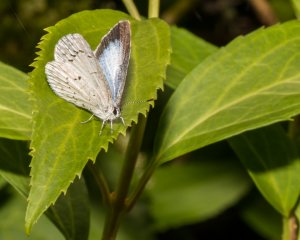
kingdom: Animalia
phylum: Arthropoda
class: Insecta
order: Lepidoptera
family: Lycaenidae
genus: Celastrina
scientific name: Celastrina serotina
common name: Cherry Gall Azure
